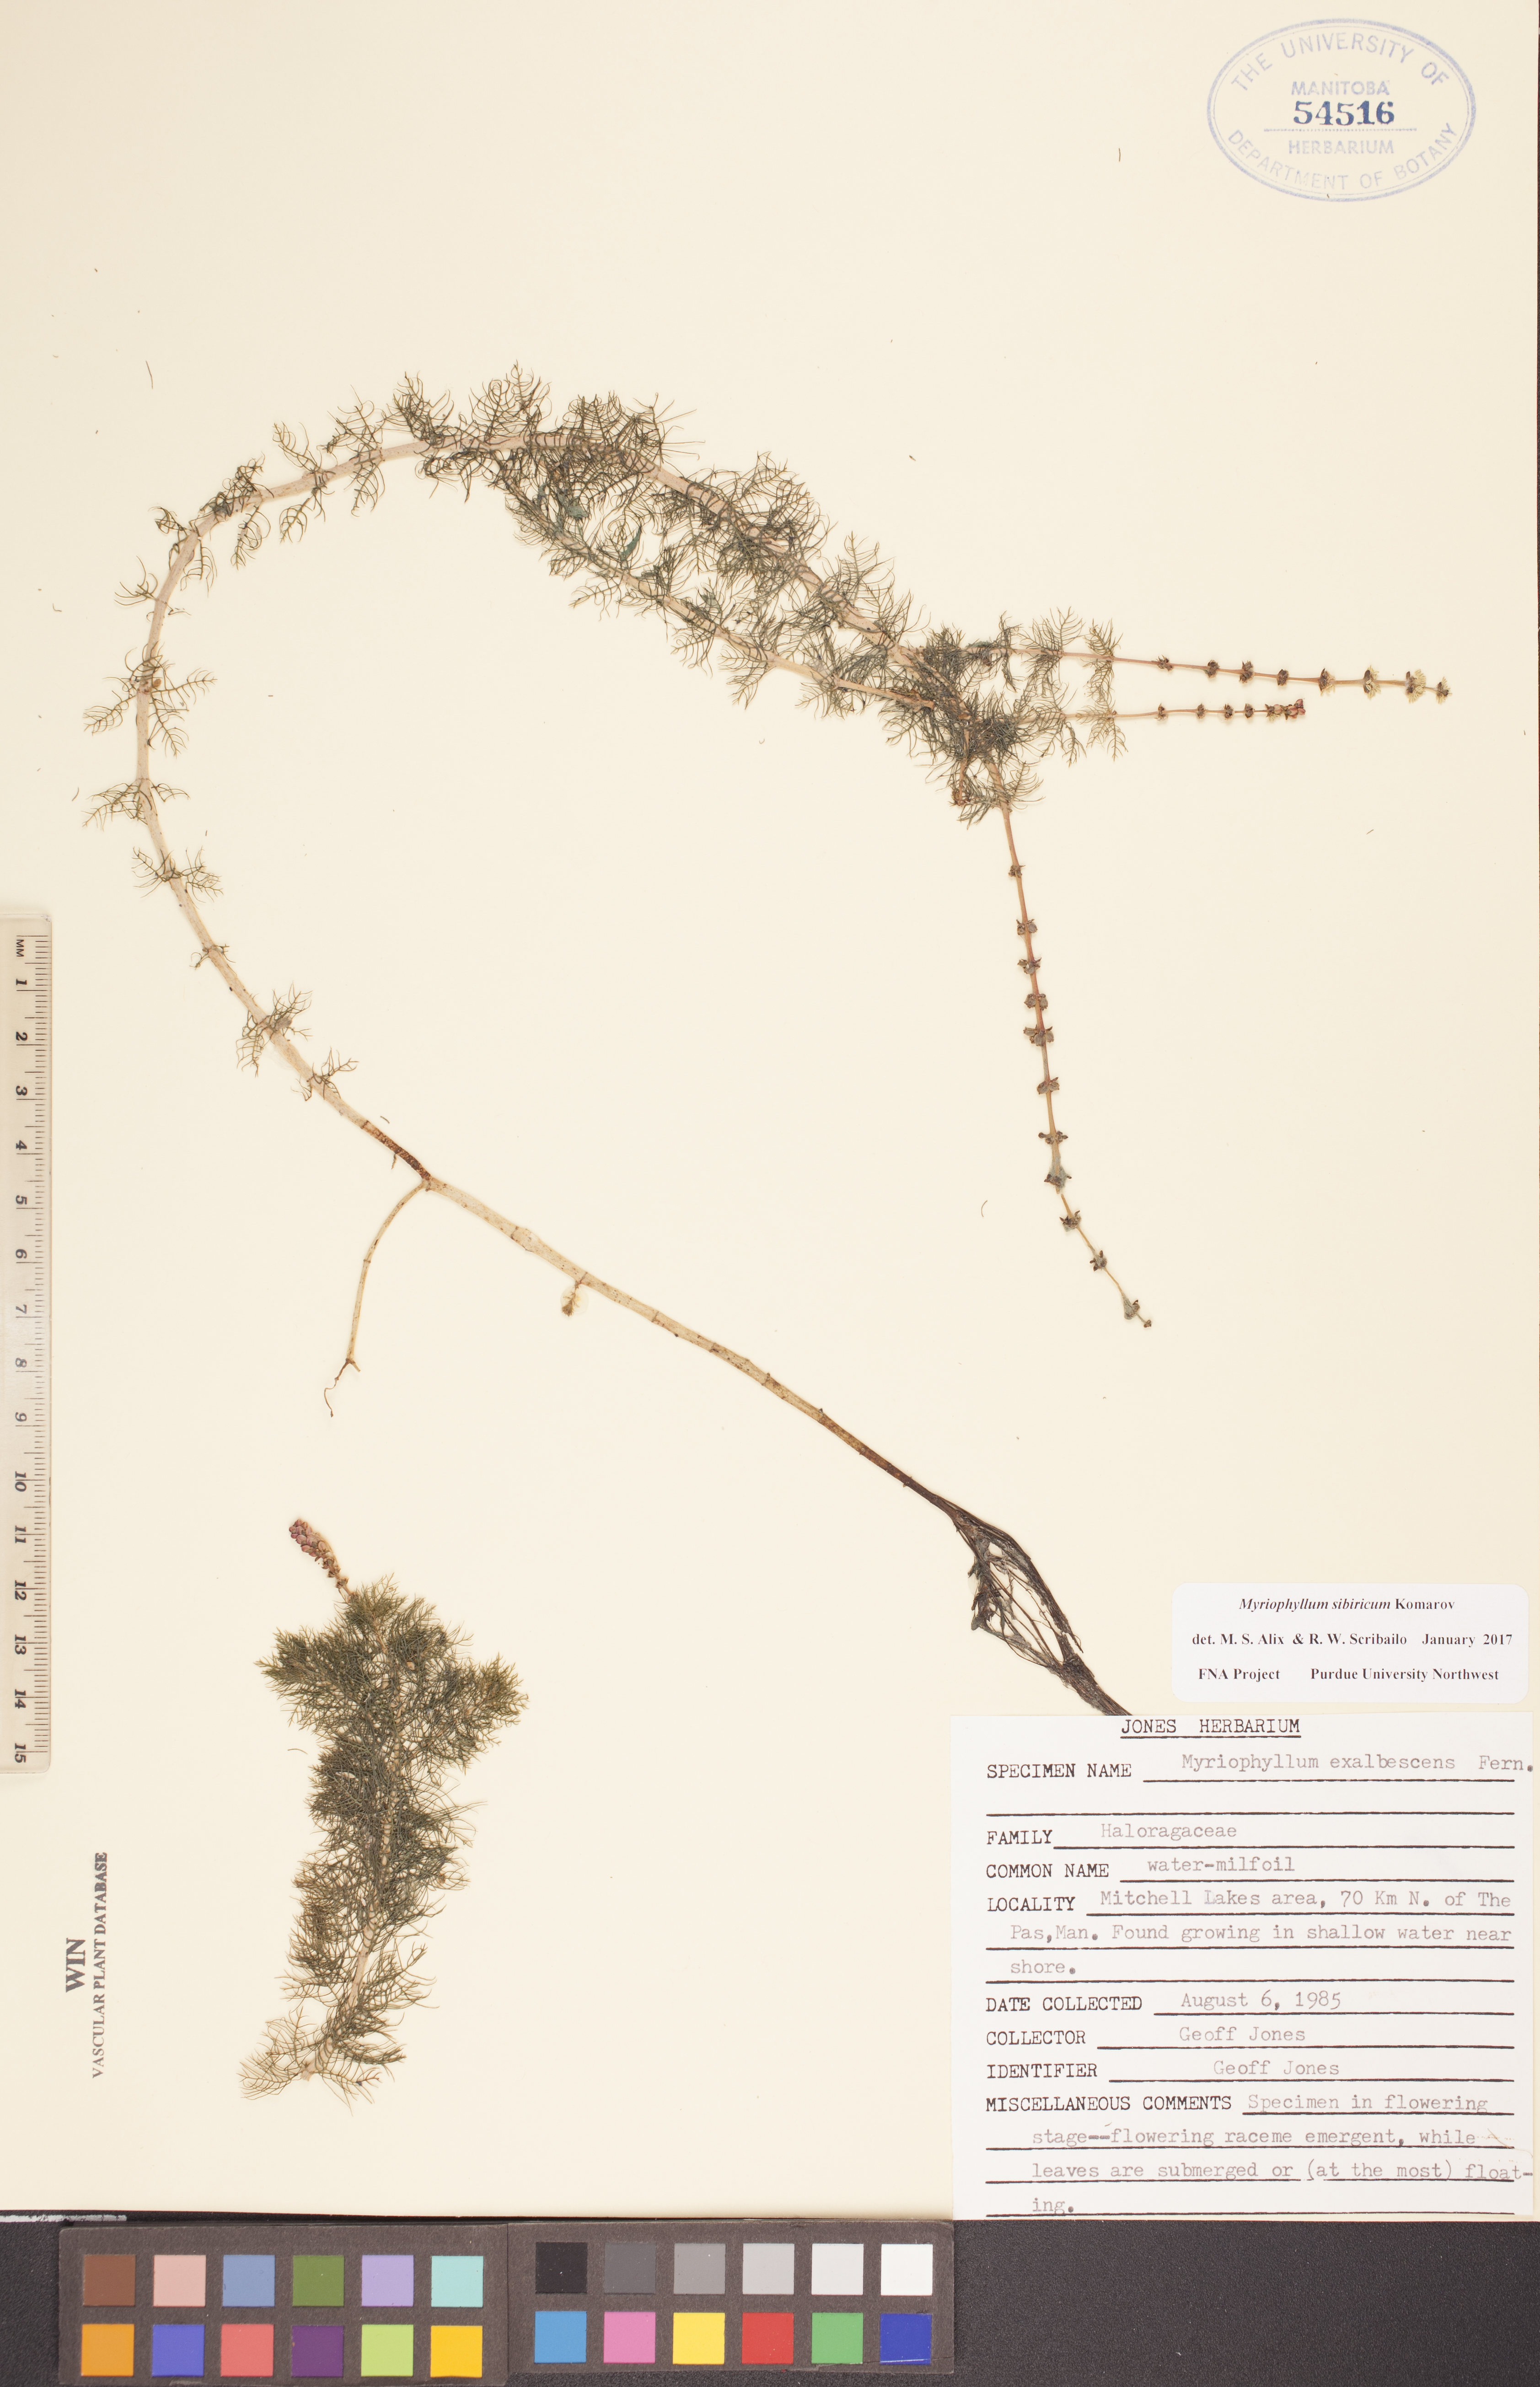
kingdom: Plantae
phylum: Tracheophyta
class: Magnoliopsida
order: Saxifragales
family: Haloragaceae
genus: Myriophyllum
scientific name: Myriophyllum sibiricum
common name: Siberian water-milfoil
